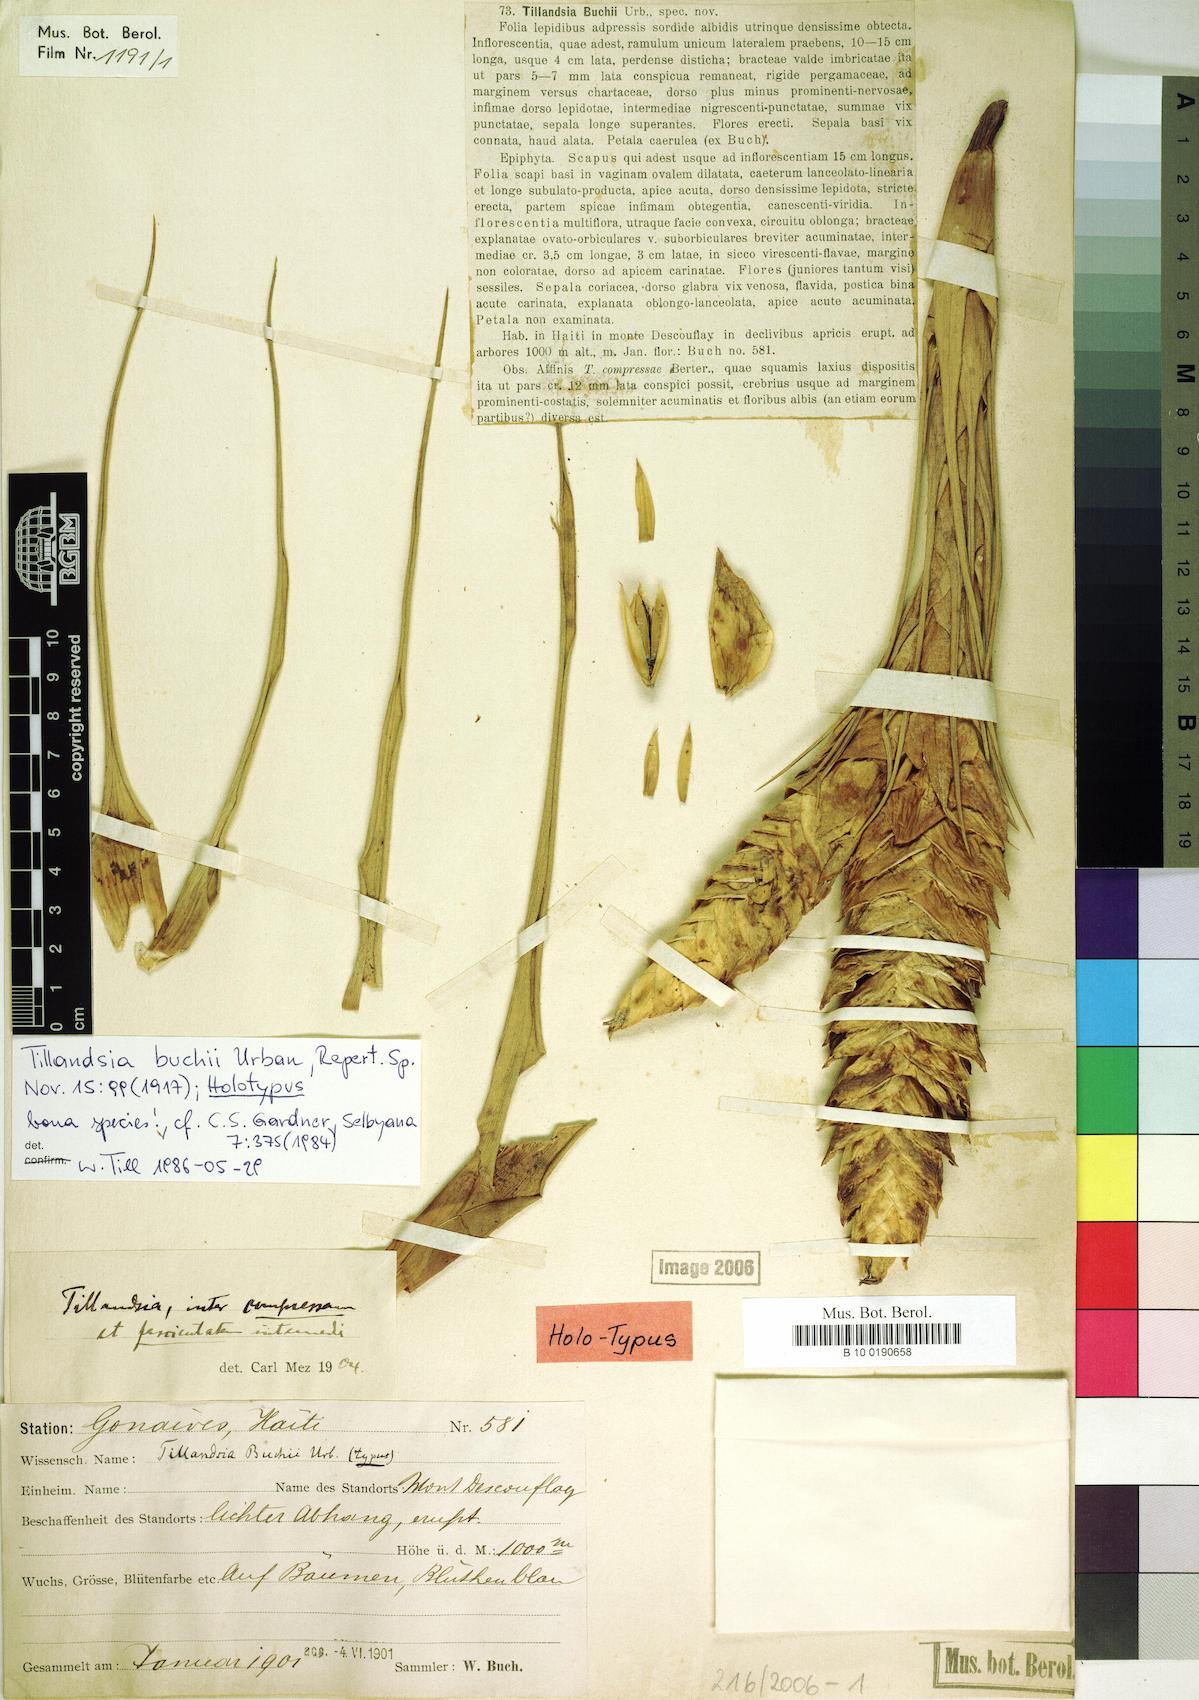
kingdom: Plantae
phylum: Tracheophyta
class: Liliopsida
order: Poales
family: Bromeliaceae
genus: Tillandsia
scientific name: Tillandsia compressa
